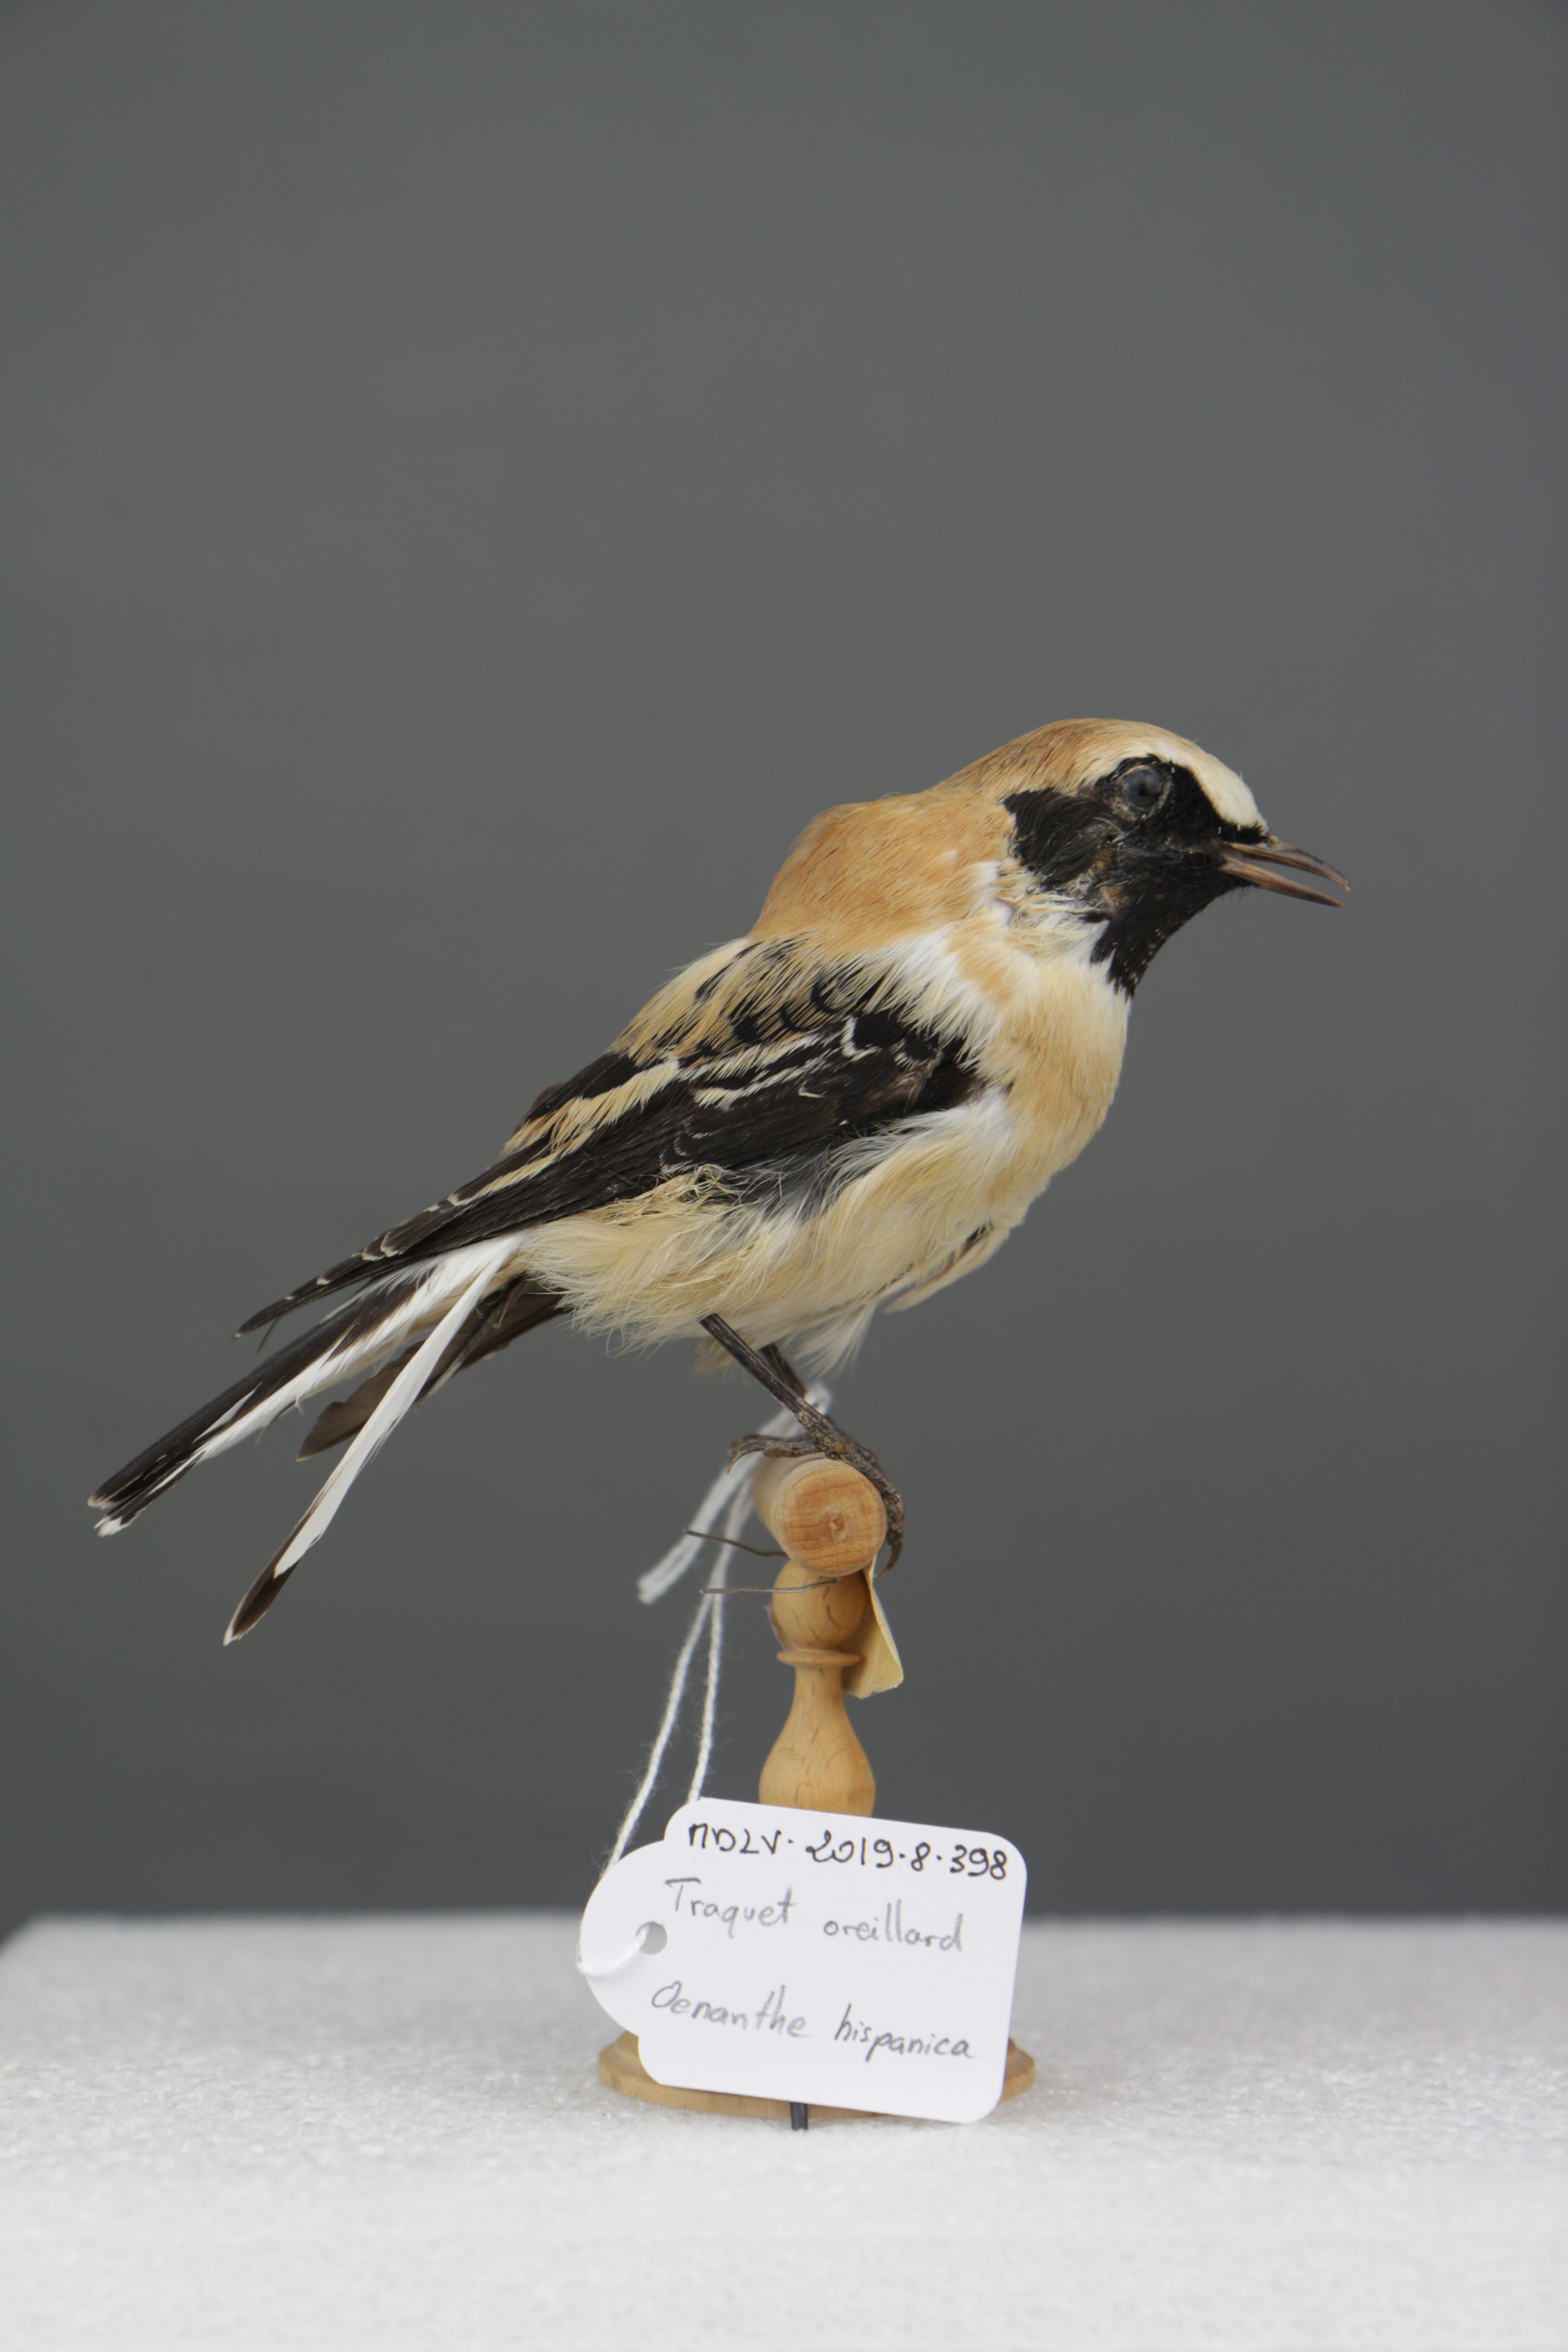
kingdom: Animalia
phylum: Chordata
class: Aves
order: Passeriformes
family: Muscicapidae
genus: Oenanthe
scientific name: Oenanthe hispanica
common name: Black-eared wheatear
